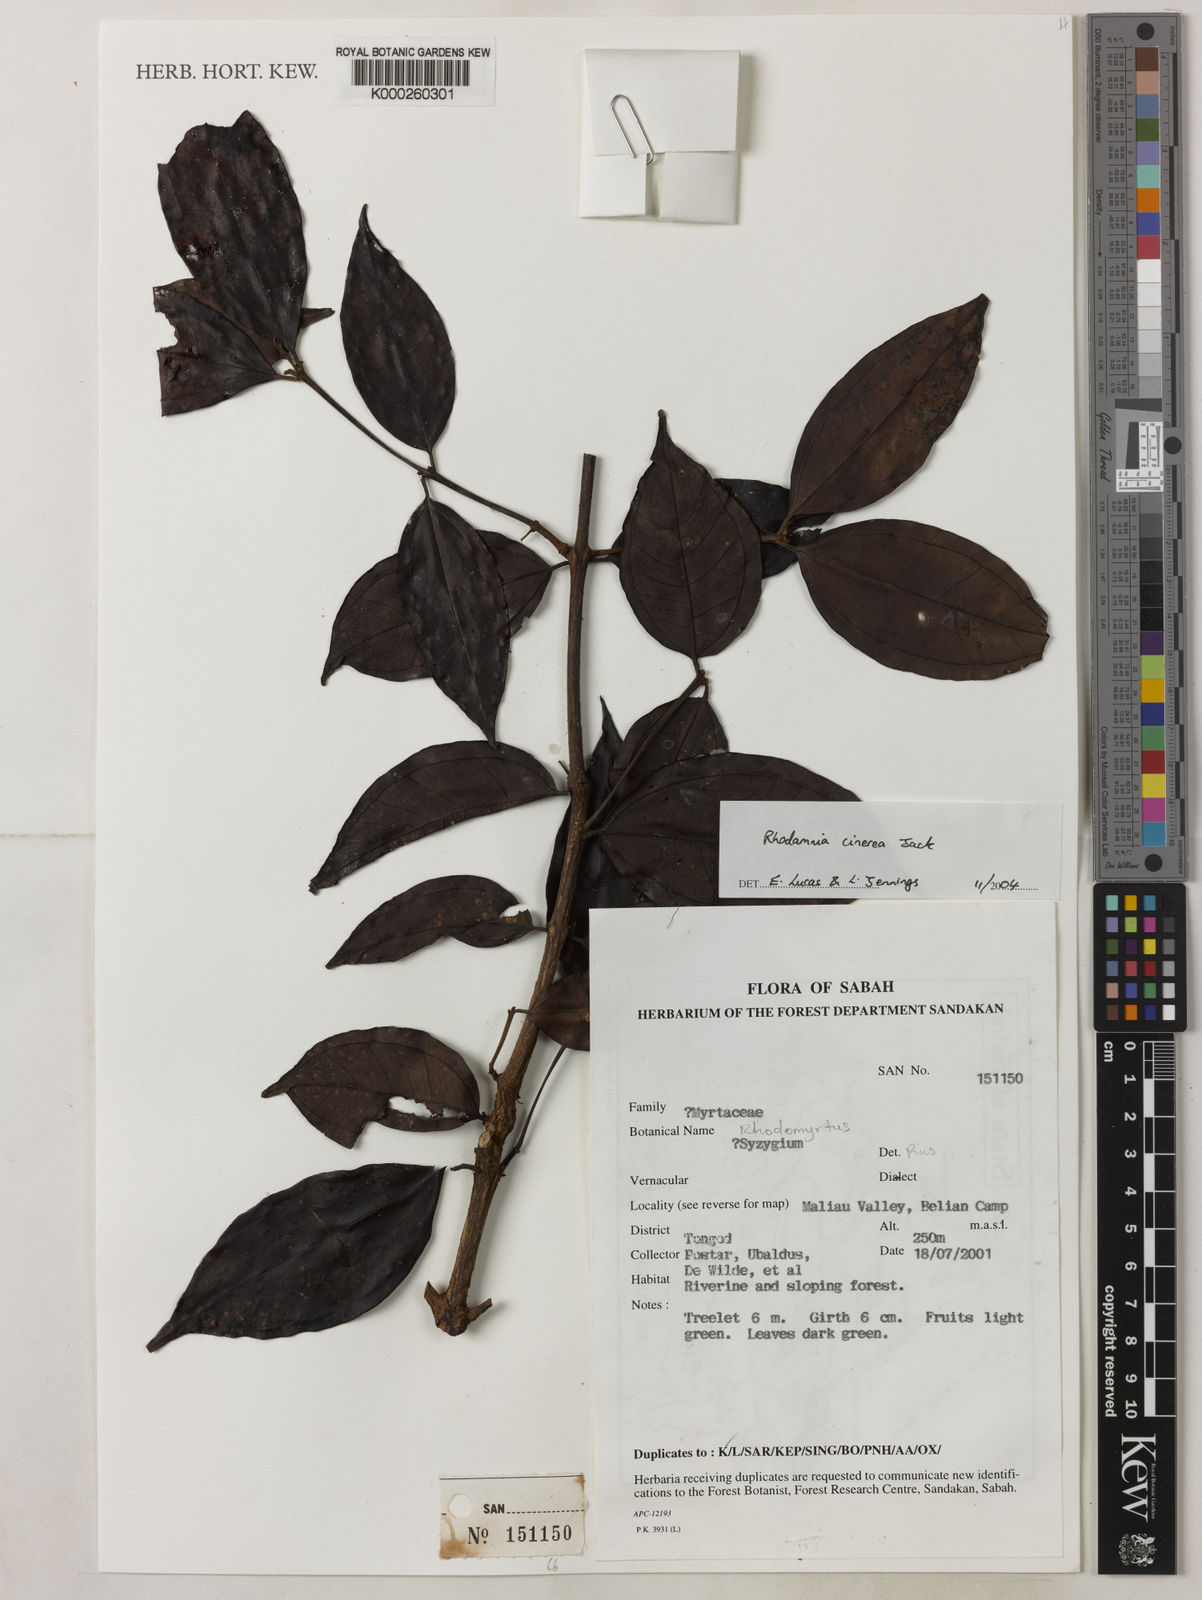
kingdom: Plantae
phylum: Tracheophyta
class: Magnoliopsida
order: Myrtales
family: Myrtaceae
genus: Rhodamnia
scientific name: Rhodamnia cinerea
